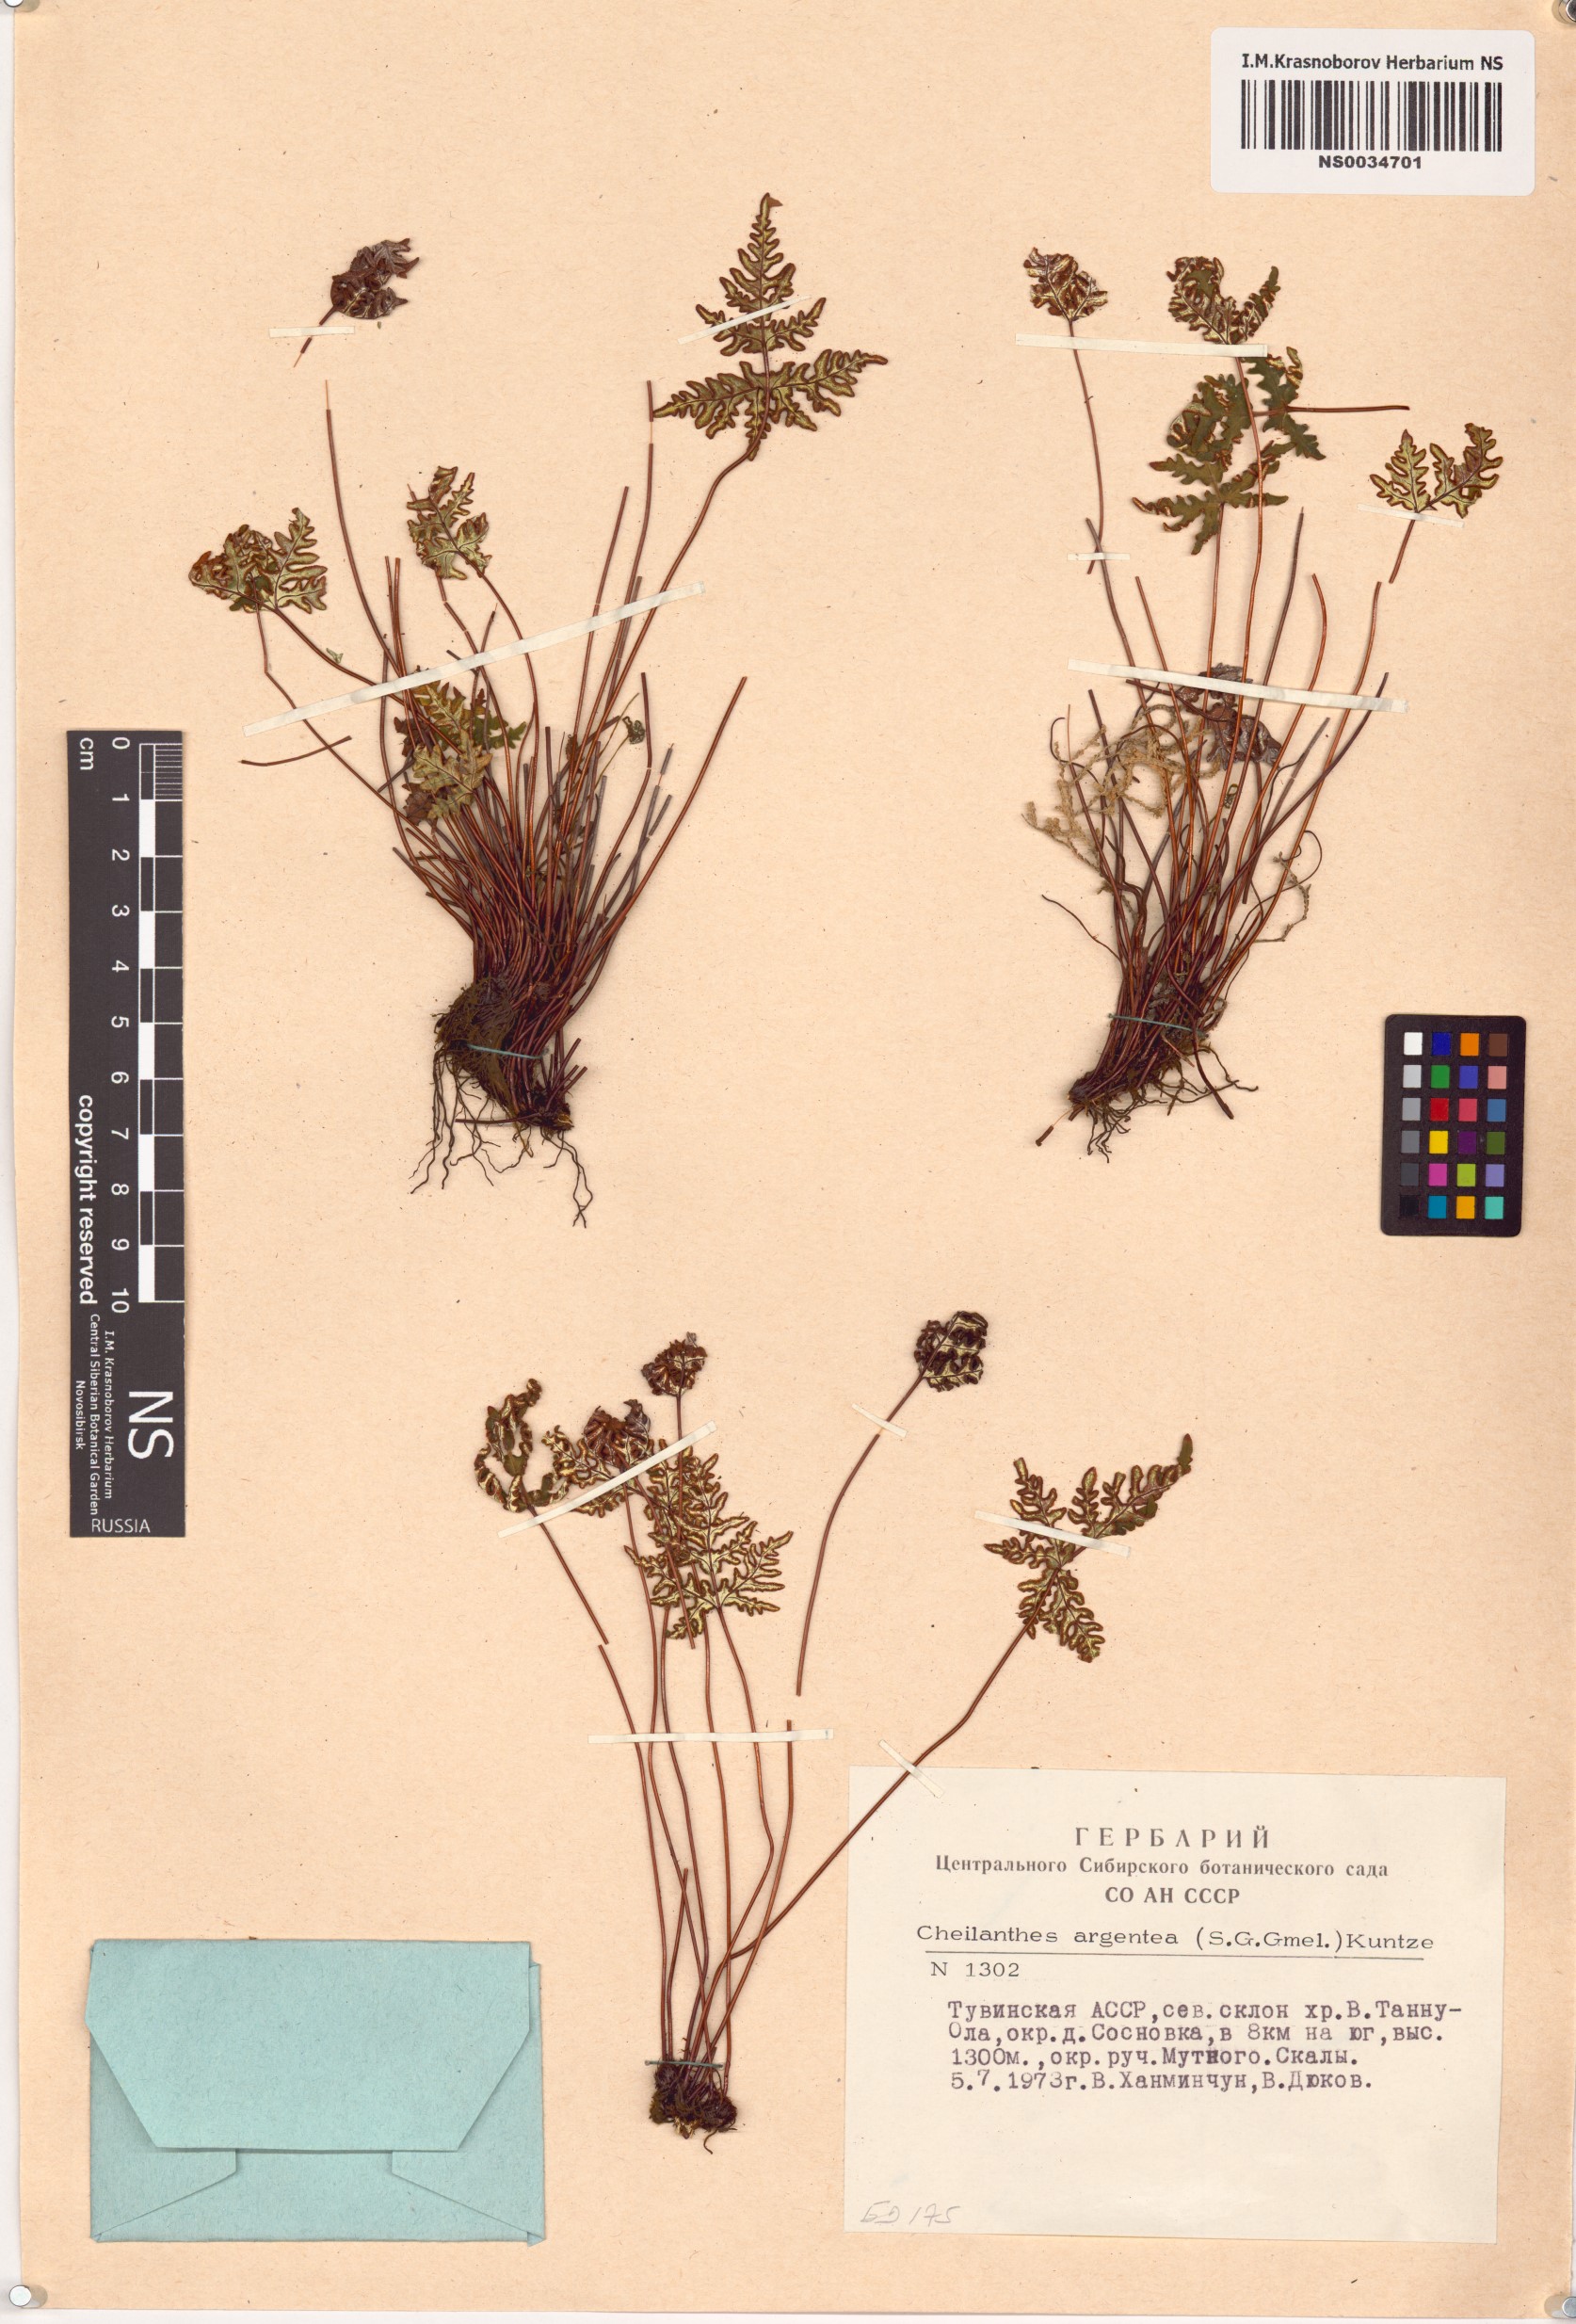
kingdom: Plantae
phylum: Tracheophyta
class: Polypodiopsida
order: Polypodiales
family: Pteridaceae
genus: Aleuritopteris
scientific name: Aleuritopteris argentea
